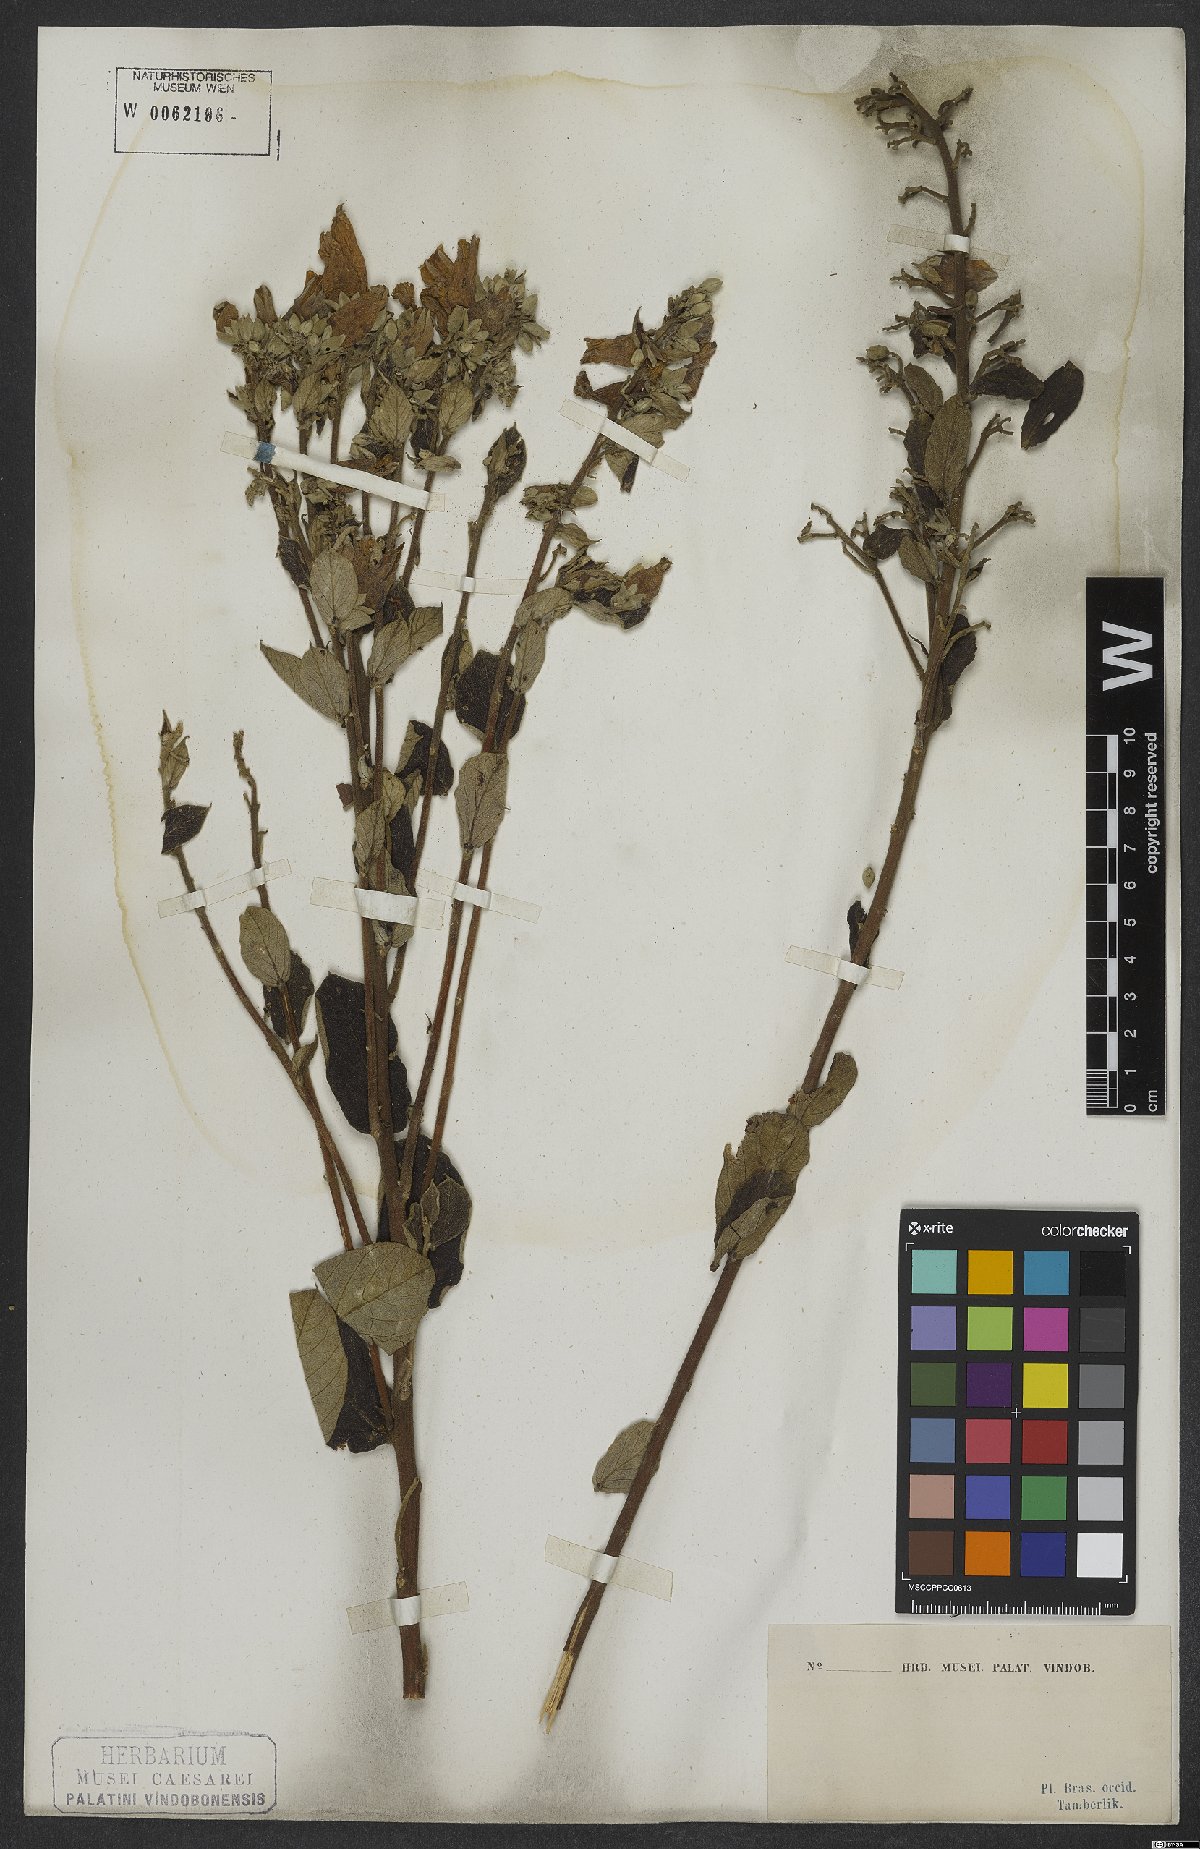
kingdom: Plantae
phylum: Tracheophyta
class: Magnoliopsida
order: Solanales
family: Convolvulaceae
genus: Ipomoea
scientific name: Ipomoea haenkeana
